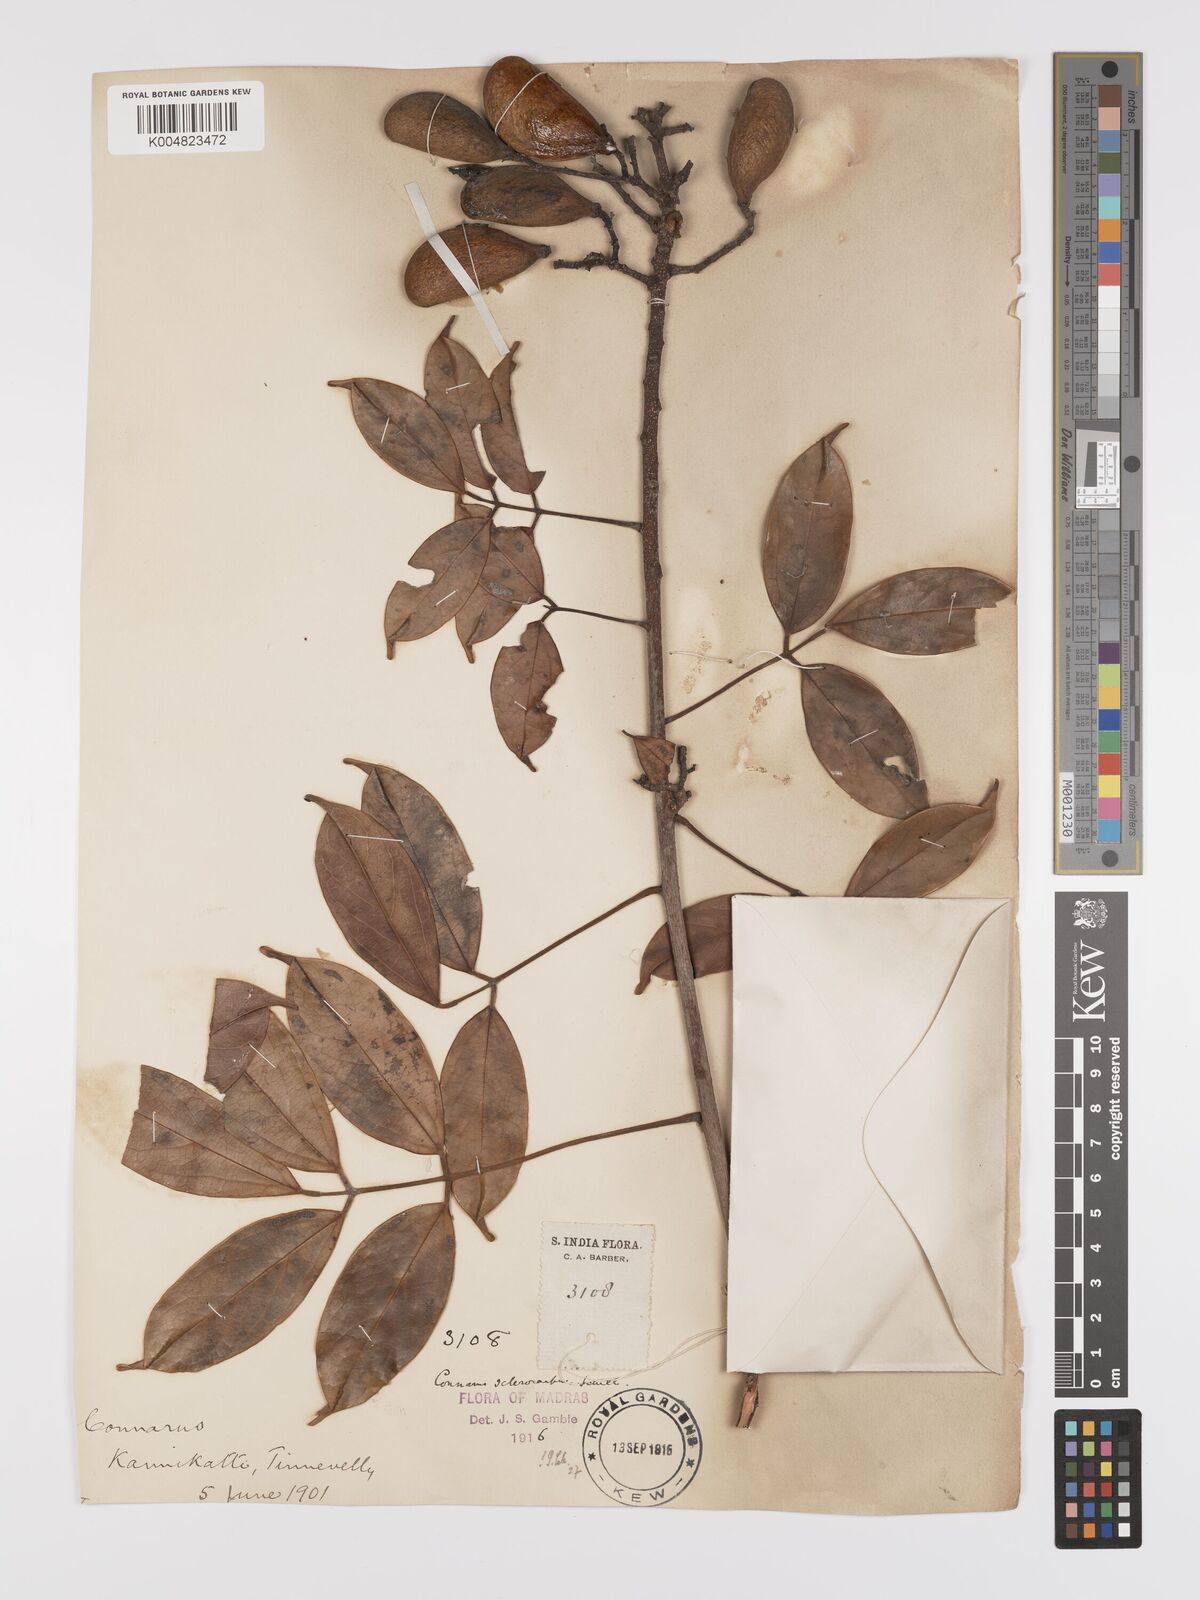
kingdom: Plantae
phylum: Tracheophyta
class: Magnoliopsida
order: Oxalidales
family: Connaraceae
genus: Connarus
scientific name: Connarus sclerocarpus
